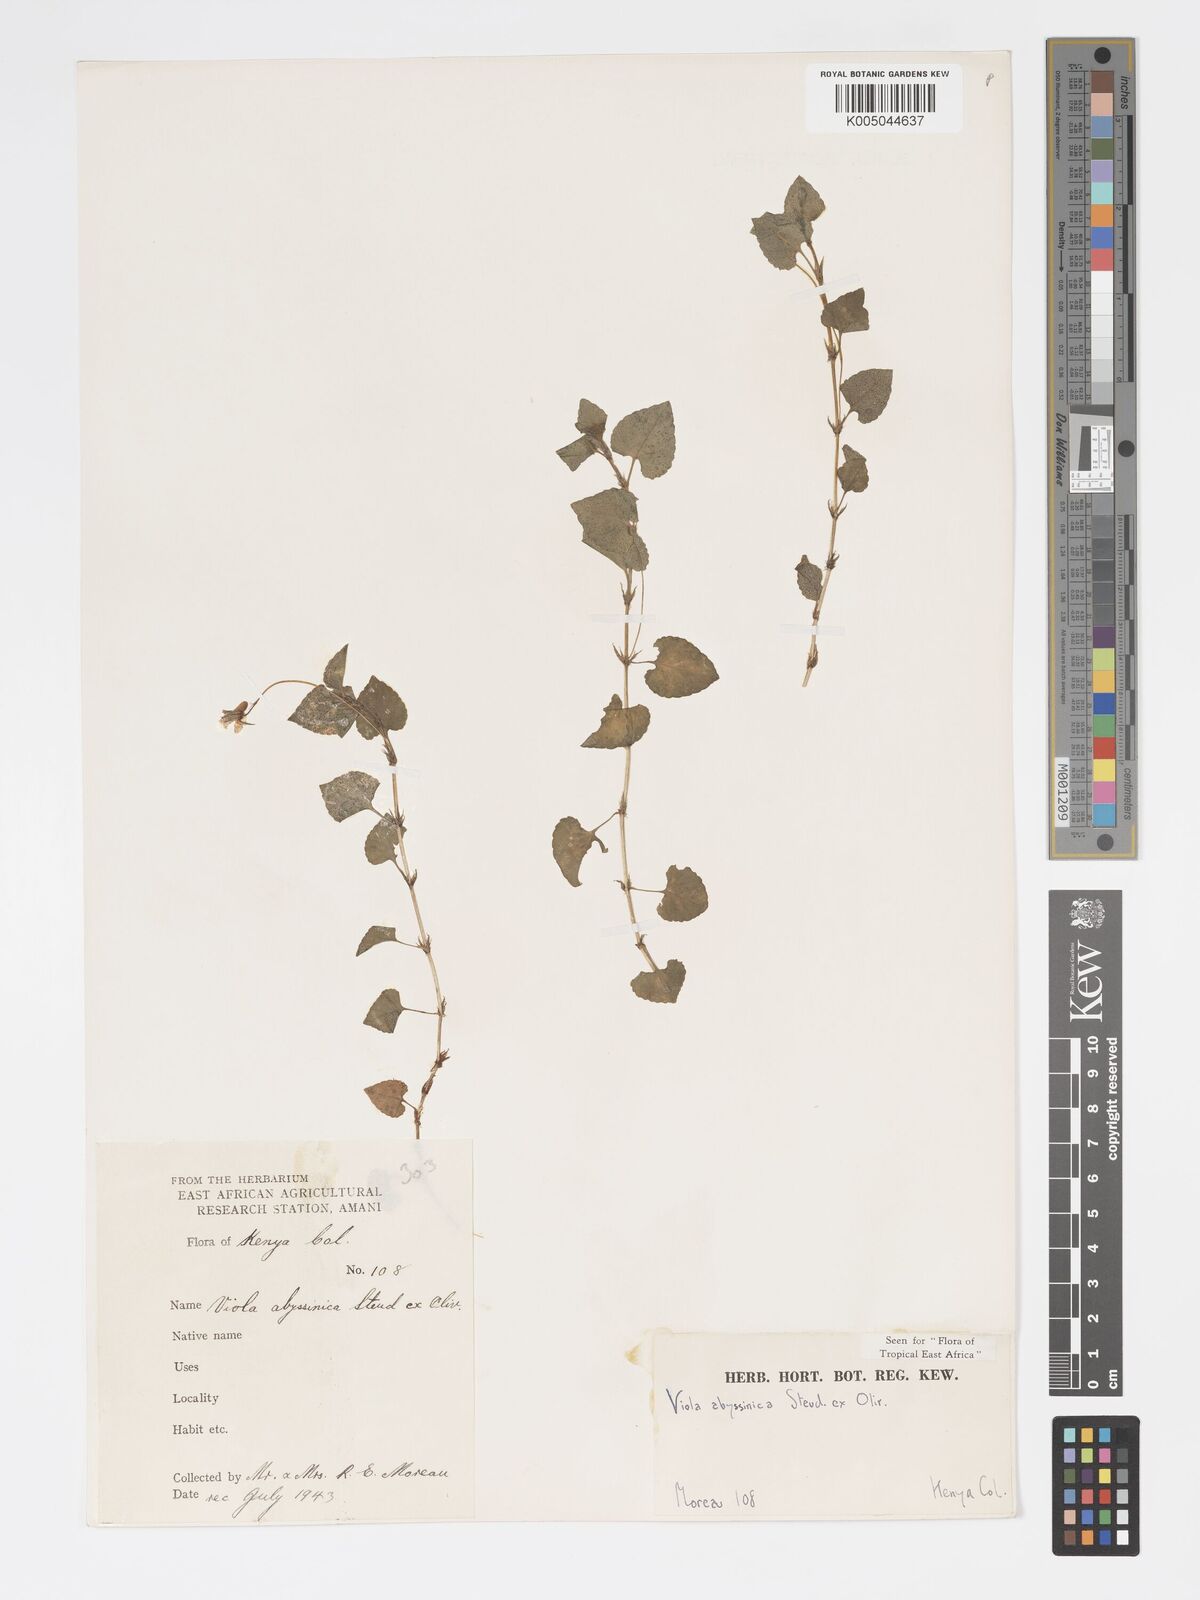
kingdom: Plantae
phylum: Tracheophyta
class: Magnoliopsida
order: Malpighiales
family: Violaceae
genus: Viola
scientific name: Viola abyssinica
